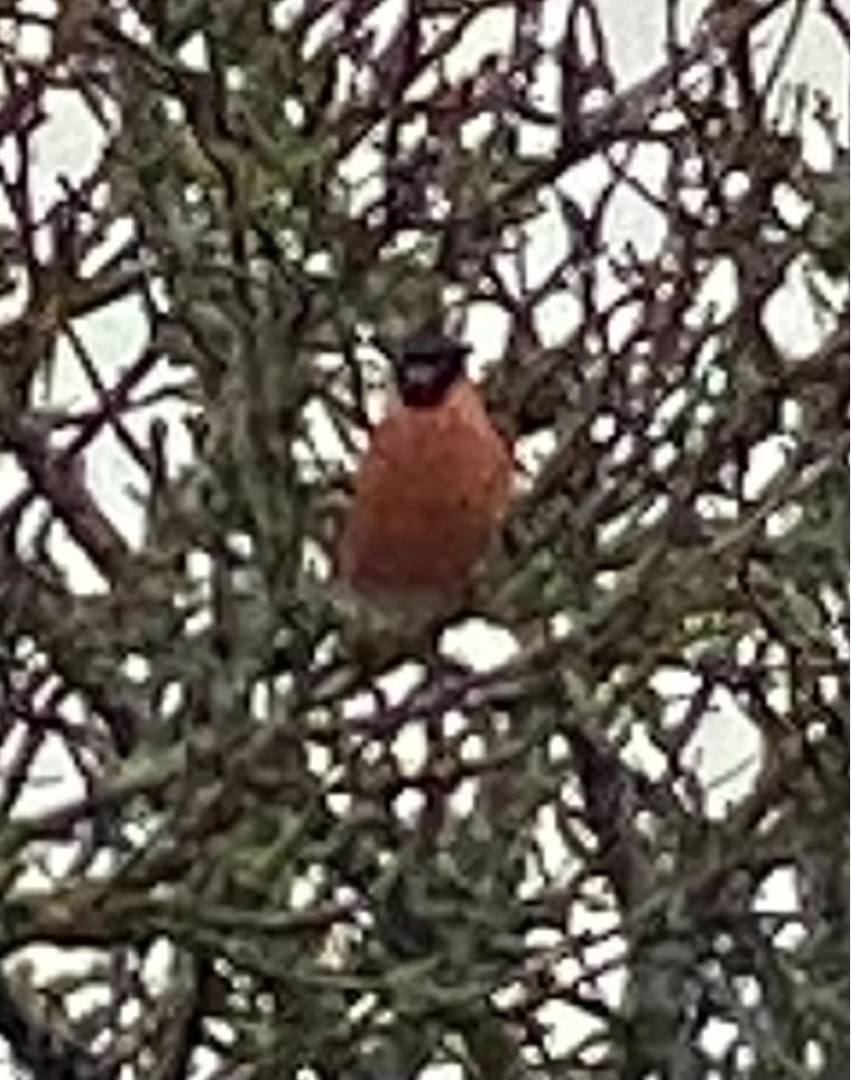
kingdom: Animalia
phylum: Chordata
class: Aves
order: Passeriformes
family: Fringillidae
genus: Pyrrhula
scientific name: Pyrrhula pyrrhula
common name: Dompap
